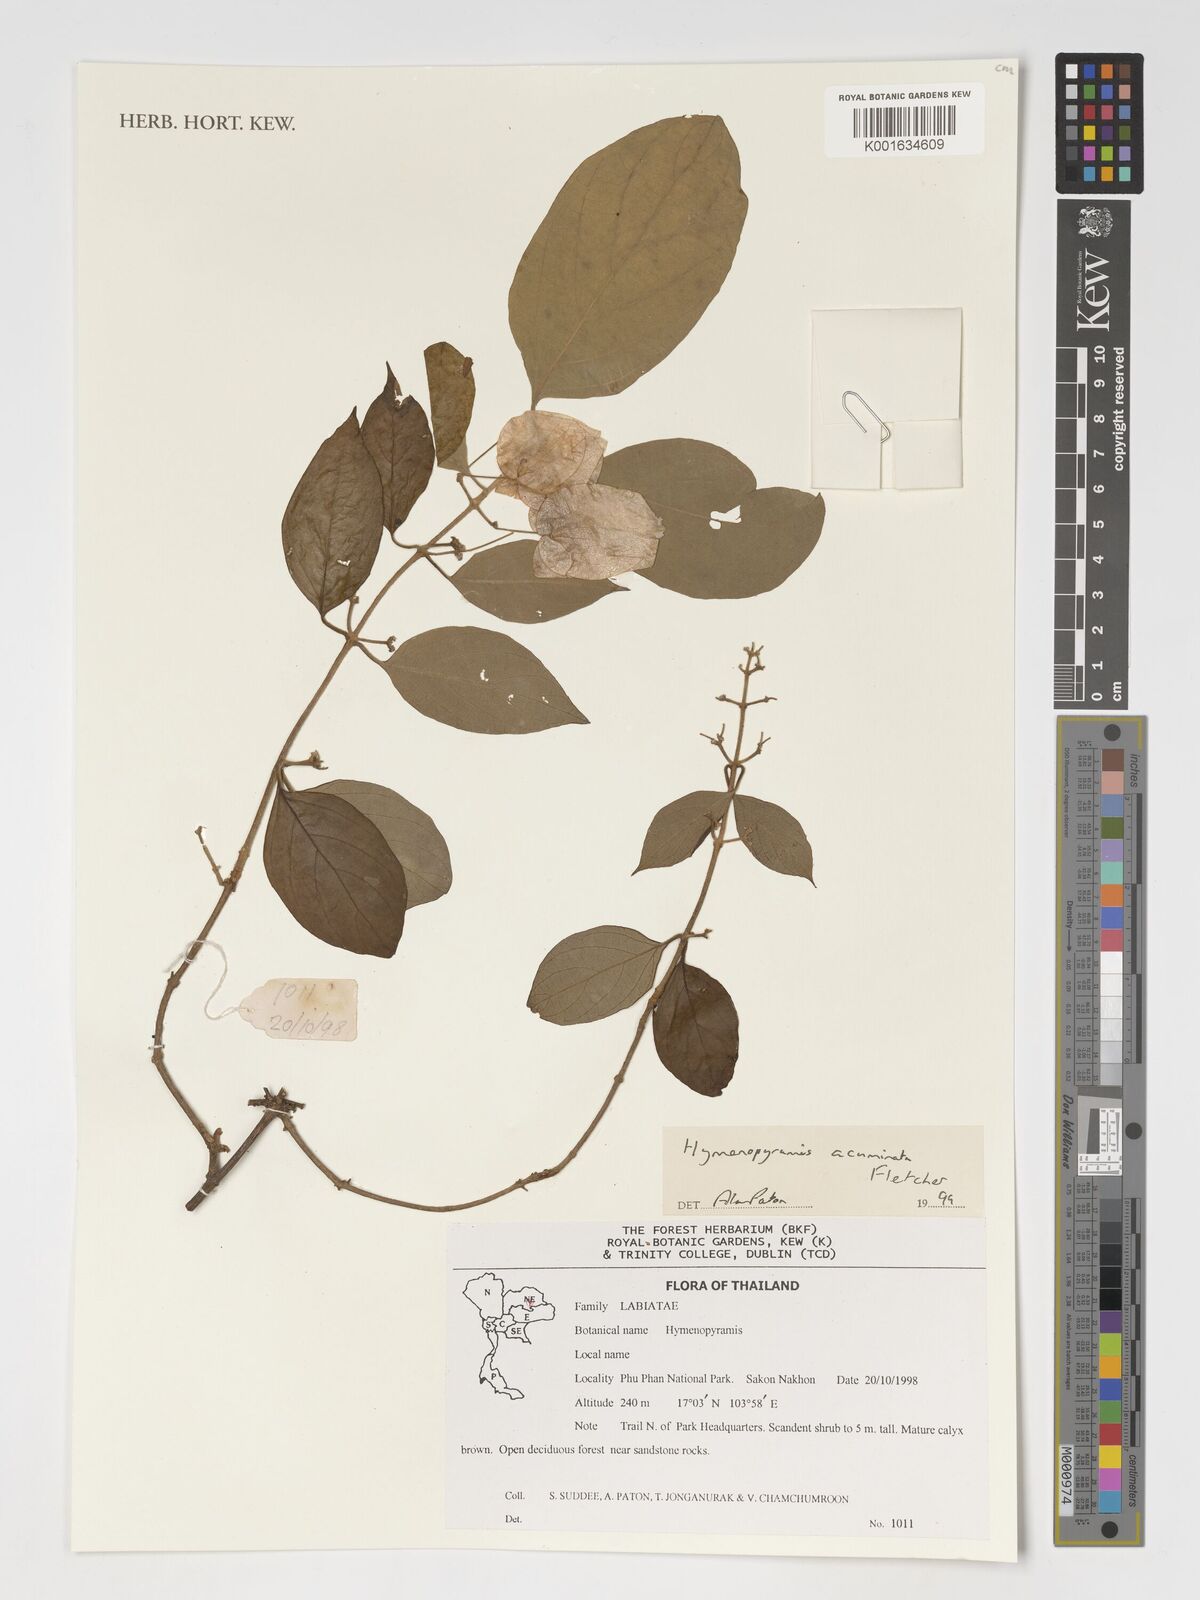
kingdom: Plantae
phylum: Tracheophyta
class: Magnoliopsida
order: Lamiales
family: Lamiaceae
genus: Hymenopyramis
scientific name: Hymenopyramis acuminata
